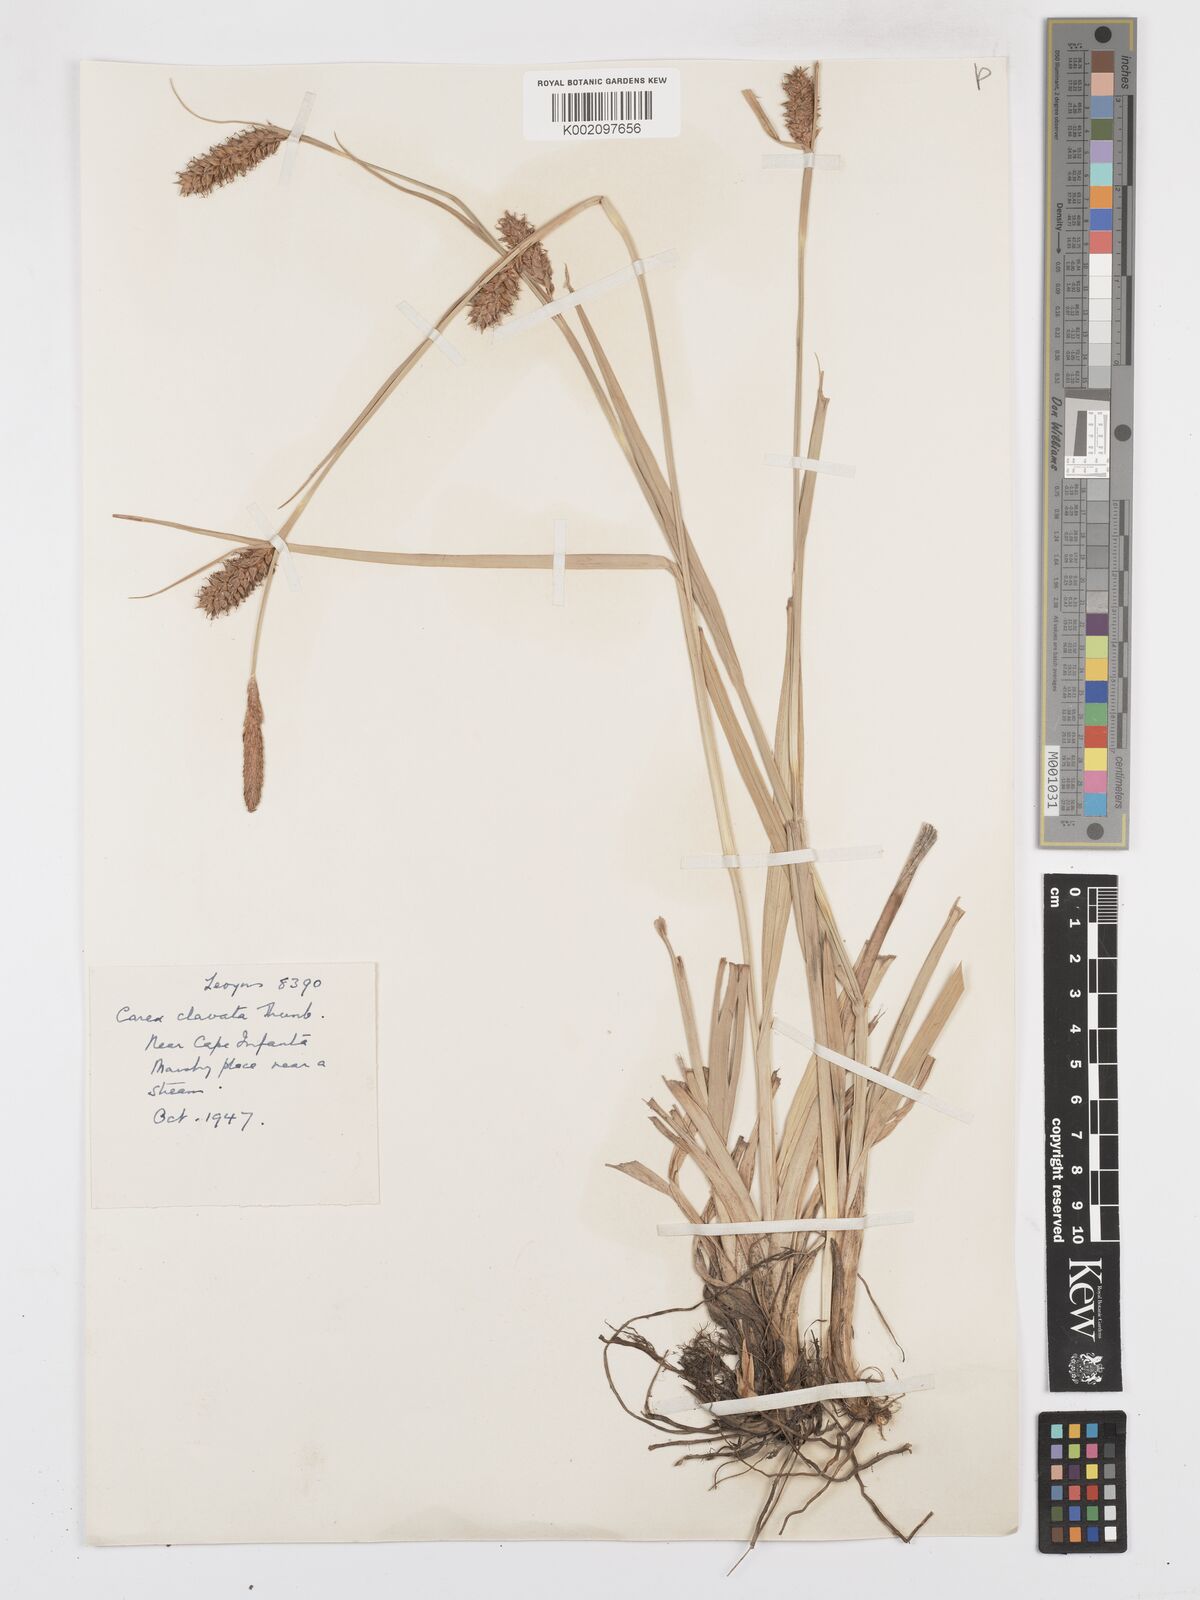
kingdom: Plantae
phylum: Tracheophyta
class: Liliopsida
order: Poales
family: Cyperaceae
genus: Carex
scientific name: Carex clavata
